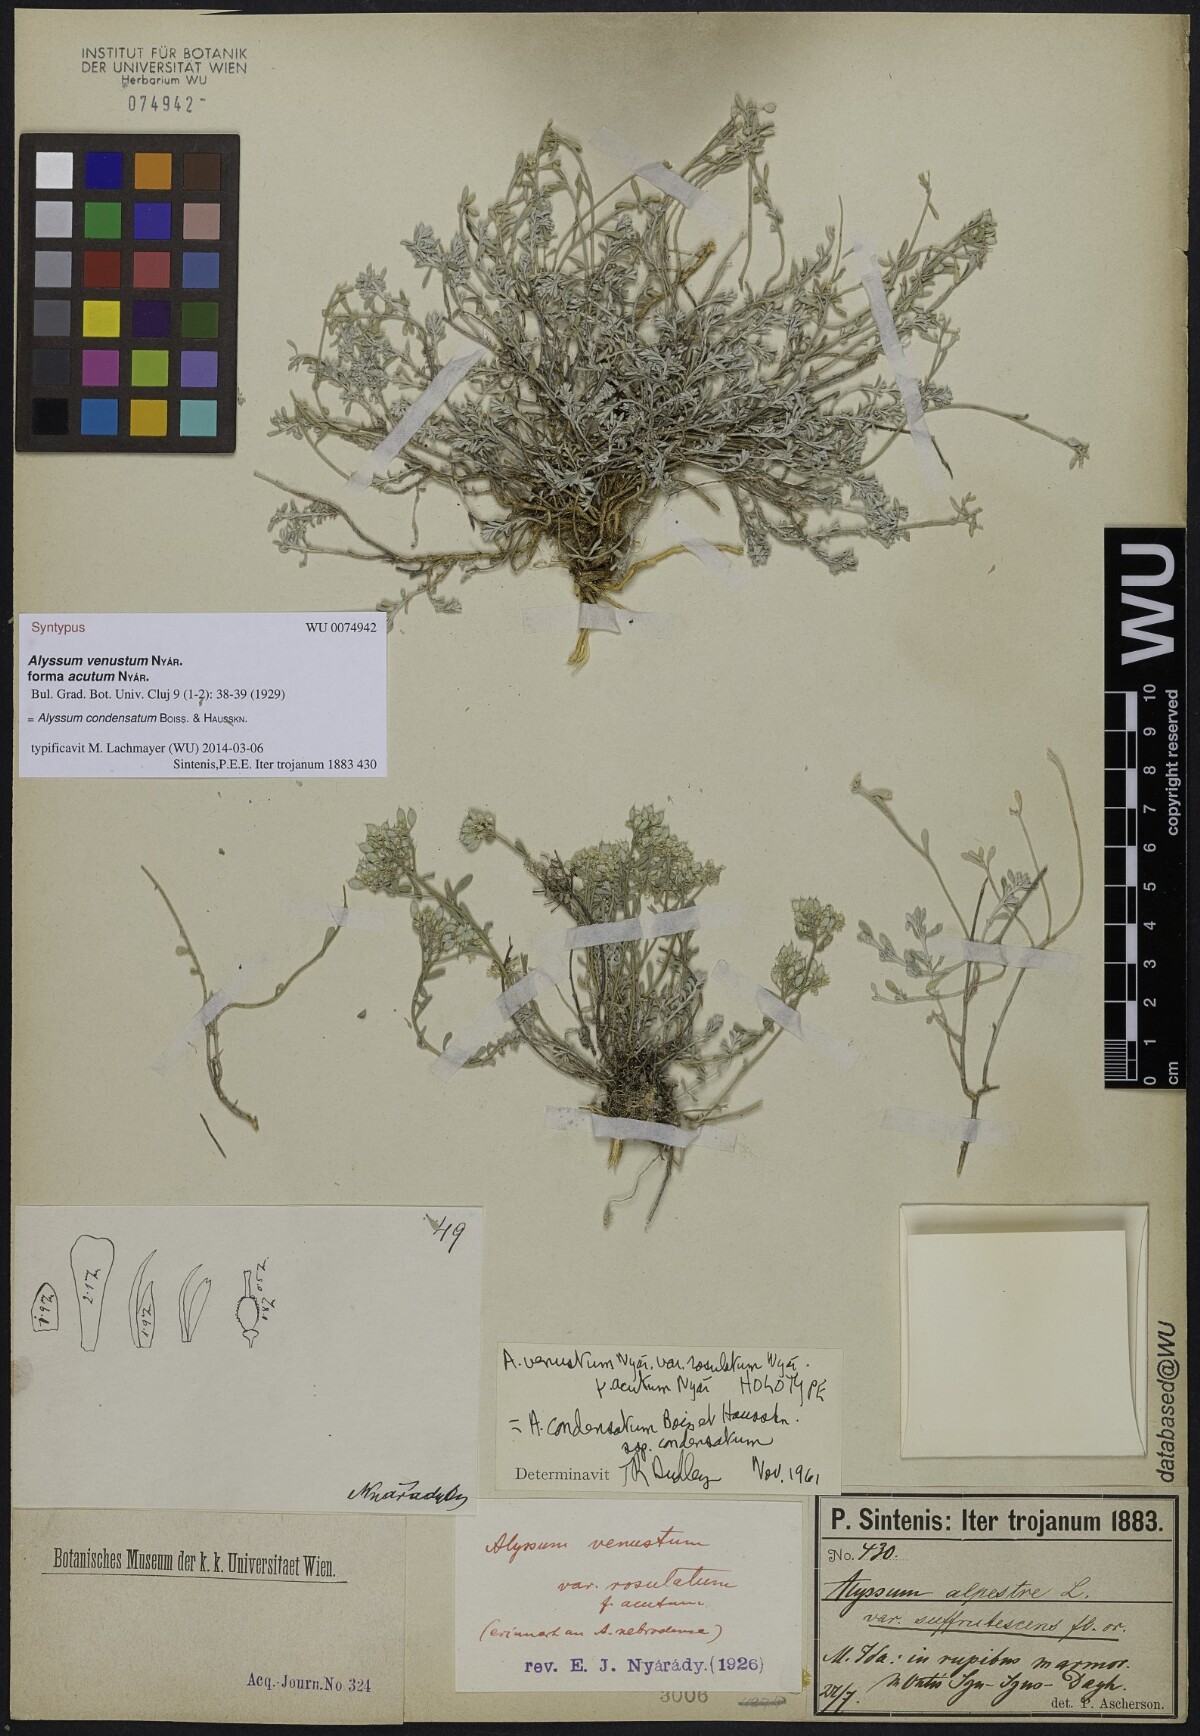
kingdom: Plantae
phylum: Tracheophyta
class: Magnoliopsida
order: Brassicales
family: Brassicaceae
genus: Odontarrhena
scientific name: Odontarrhena condensata
